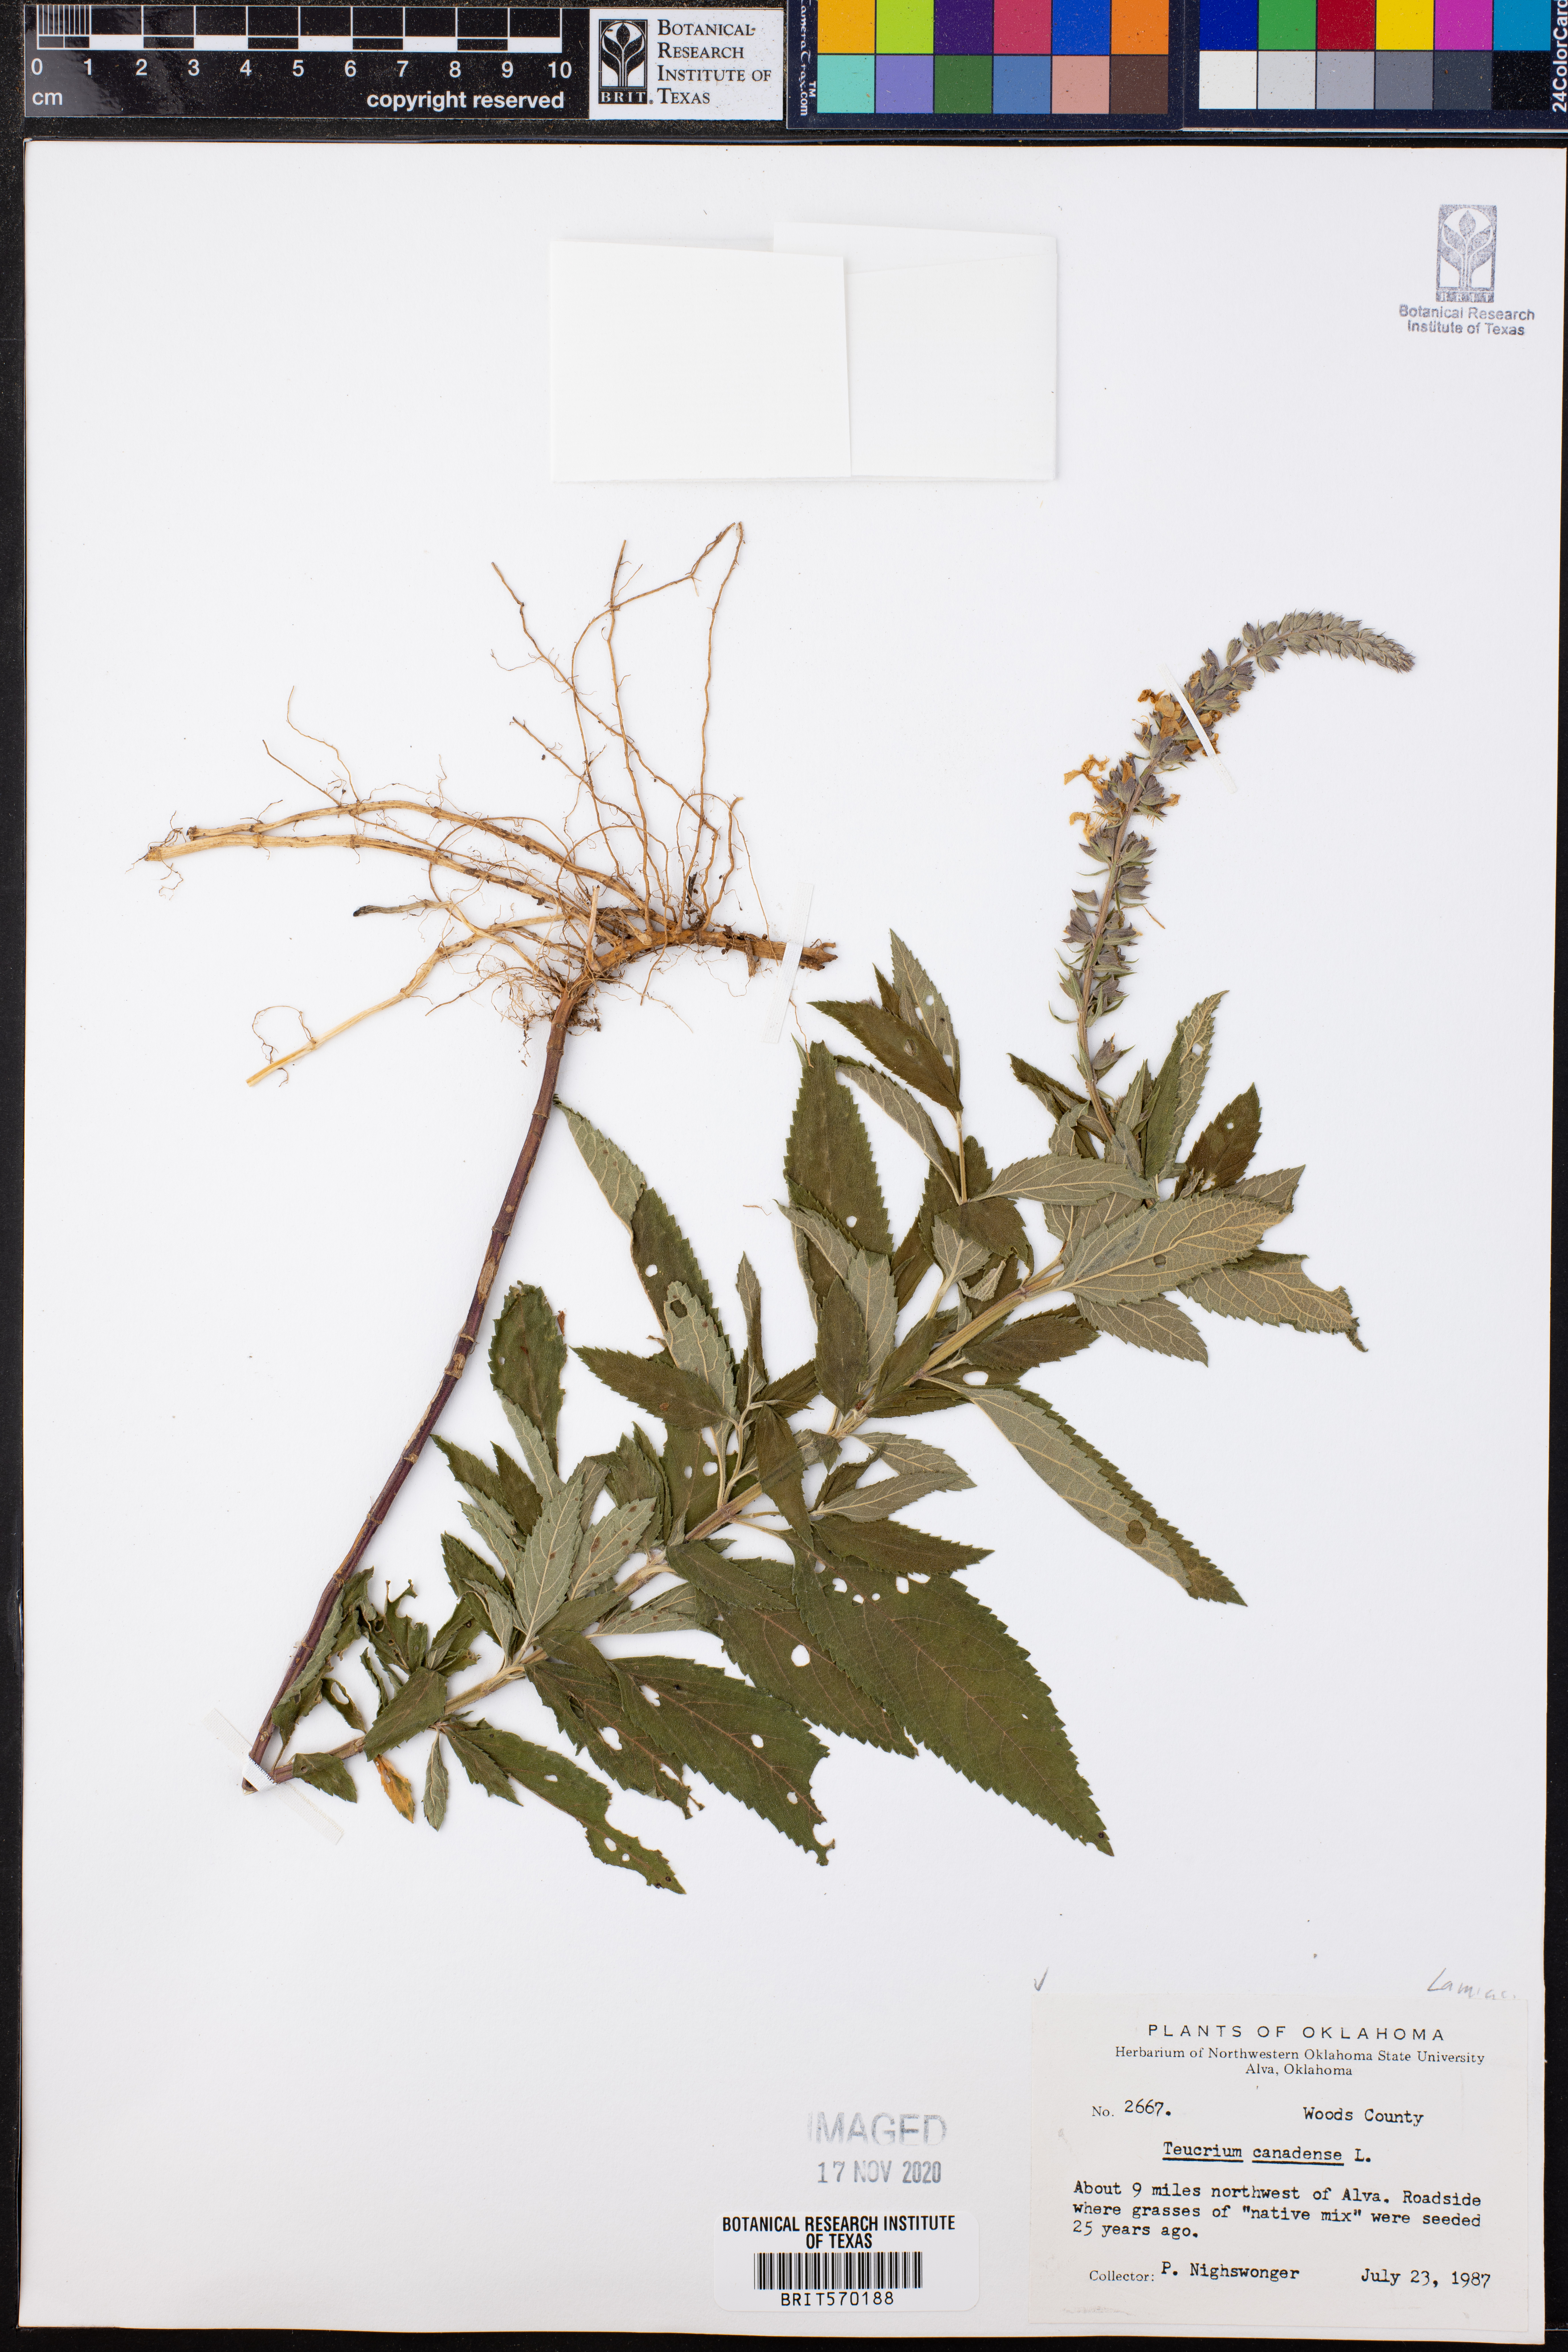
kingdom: Plantae
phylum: Tracheophyta
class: Magnoliopsida
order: Lamiales
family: Lamiaceae
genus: Teucrium
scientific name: Teucrium canadense
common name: American germander
